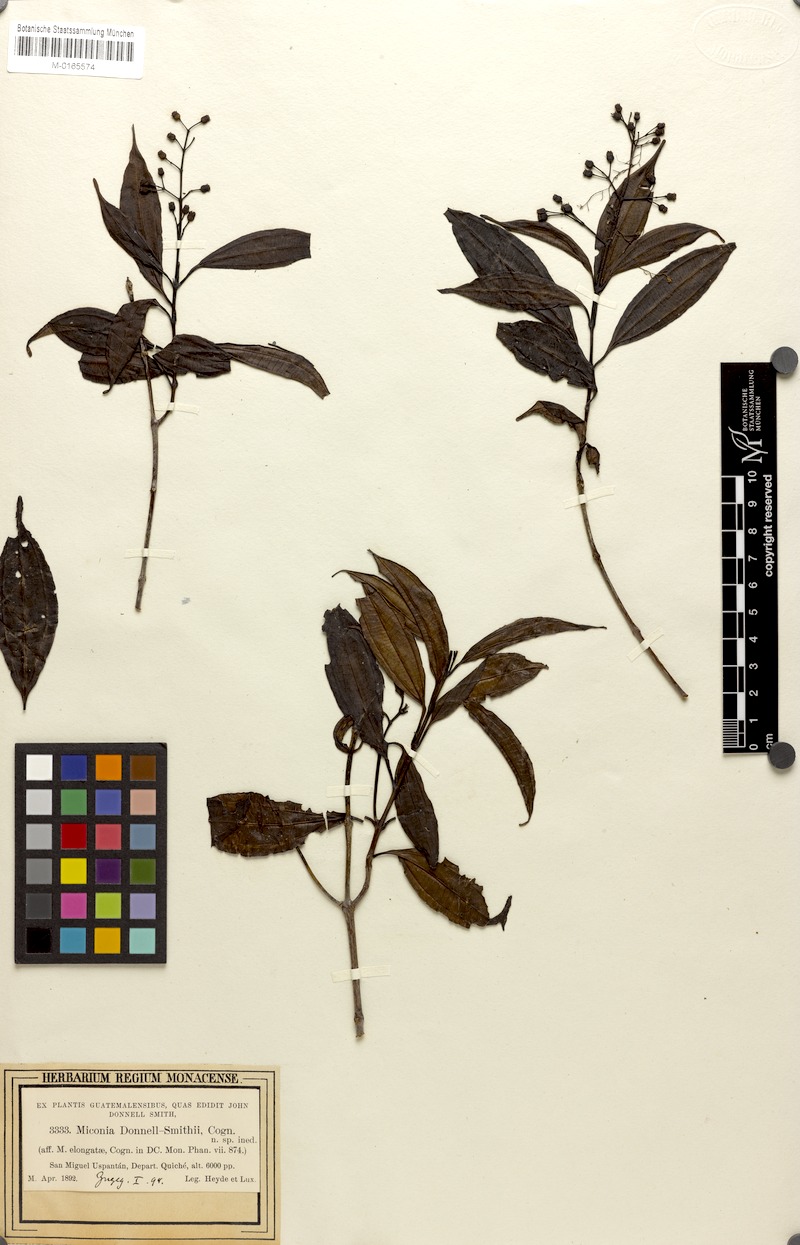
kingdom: Plantae
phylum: Tracheophyta
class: Magnoliopsida
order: Myrtales
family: Melastomataceae
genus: Miconia
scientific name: Miconia livida
